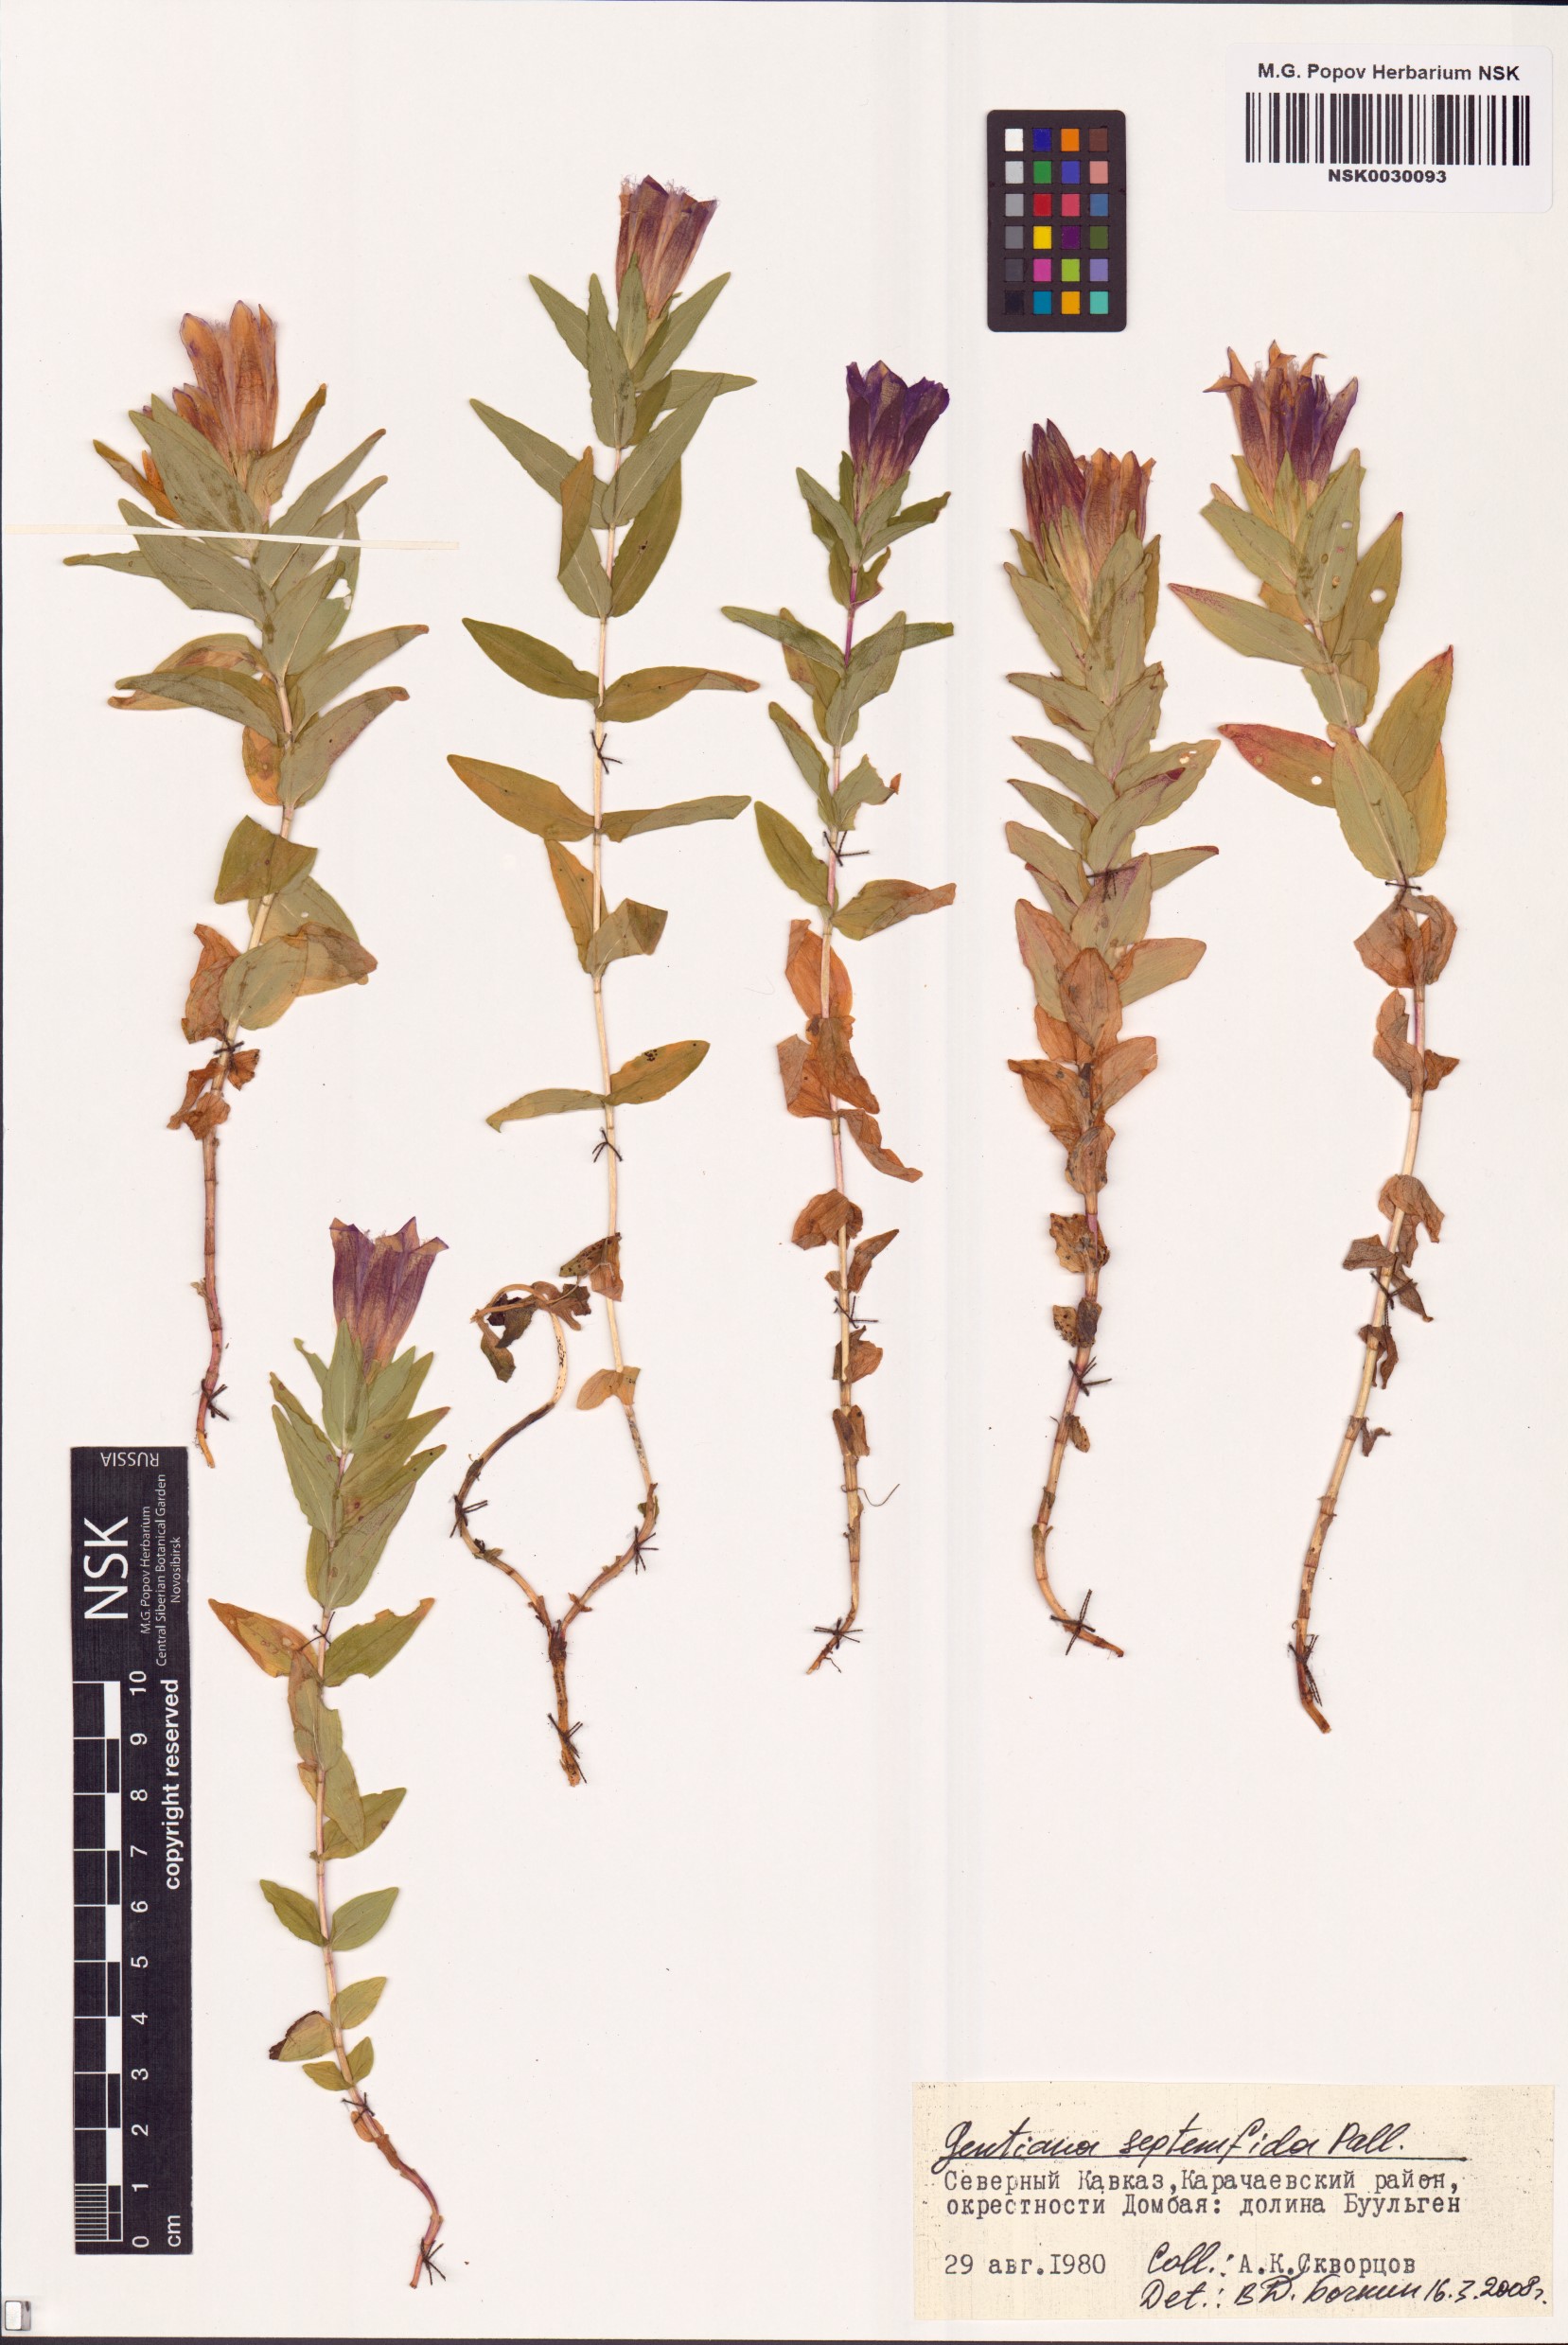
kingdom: Plantae
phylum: Tracheophyta
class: Magnoliopsida
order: Gentianales
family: Gentianaceae
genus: Gentiana
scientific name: Gentiana septemfida
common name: Crested gentian
